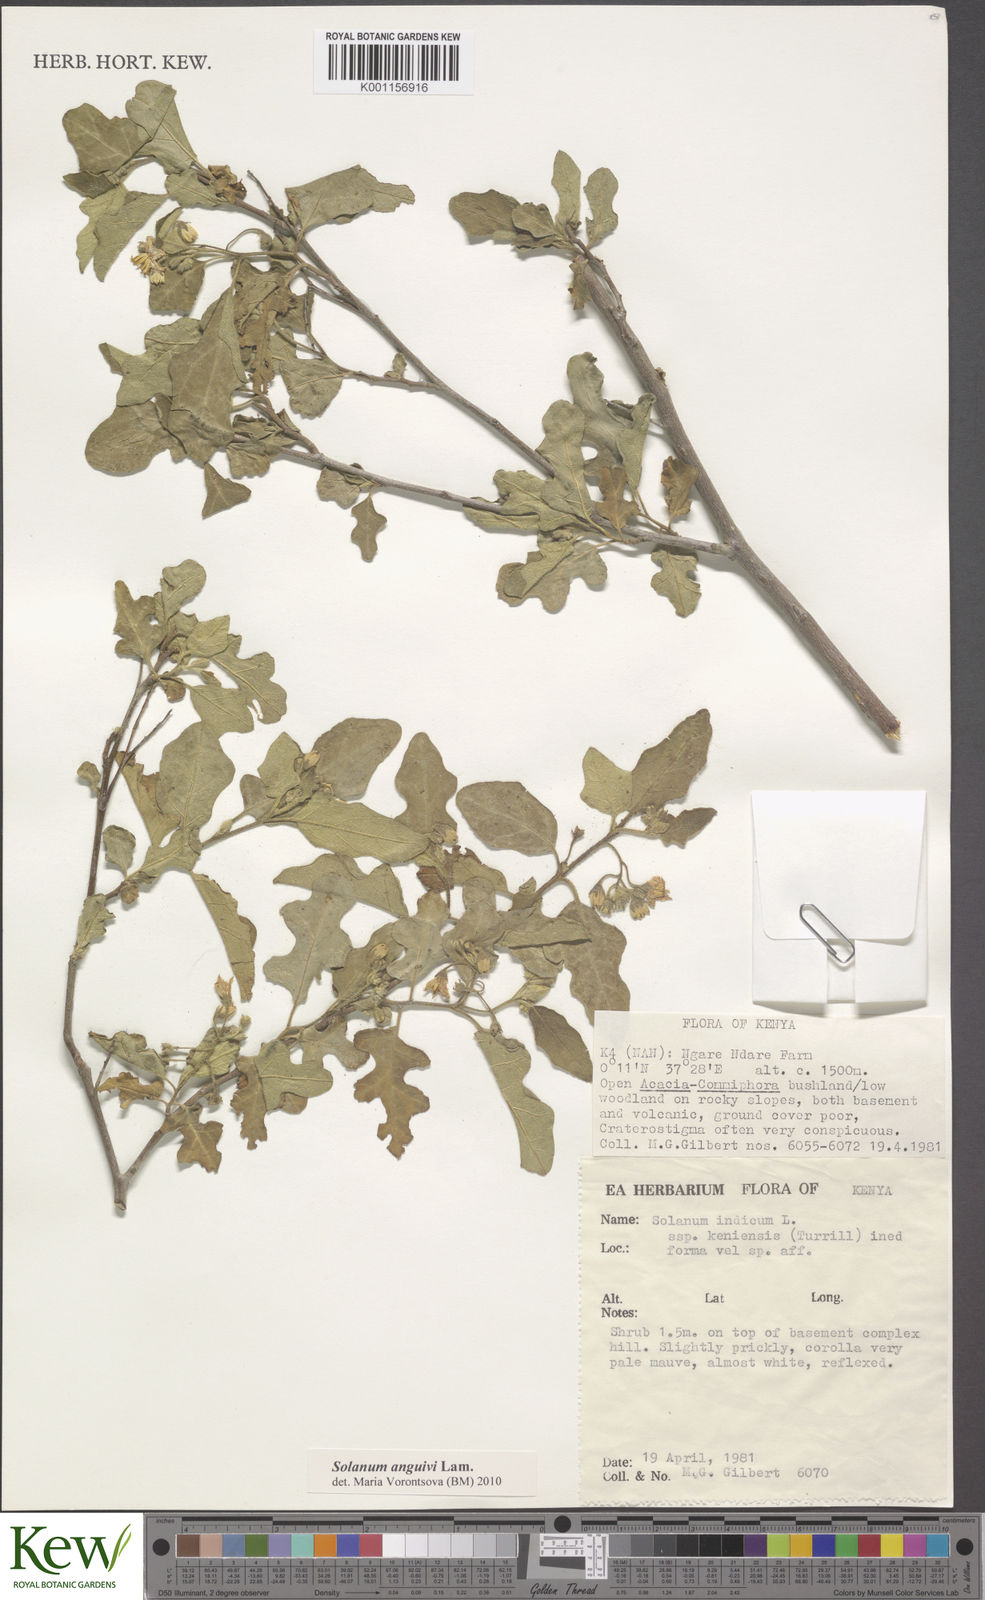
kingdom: Plantae
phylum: Tracheophyta
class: Magnoliopsida
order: Solanales
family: Solanaceae
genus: Solanum
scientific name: Solanum anguivi
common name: Forest bitterberry
